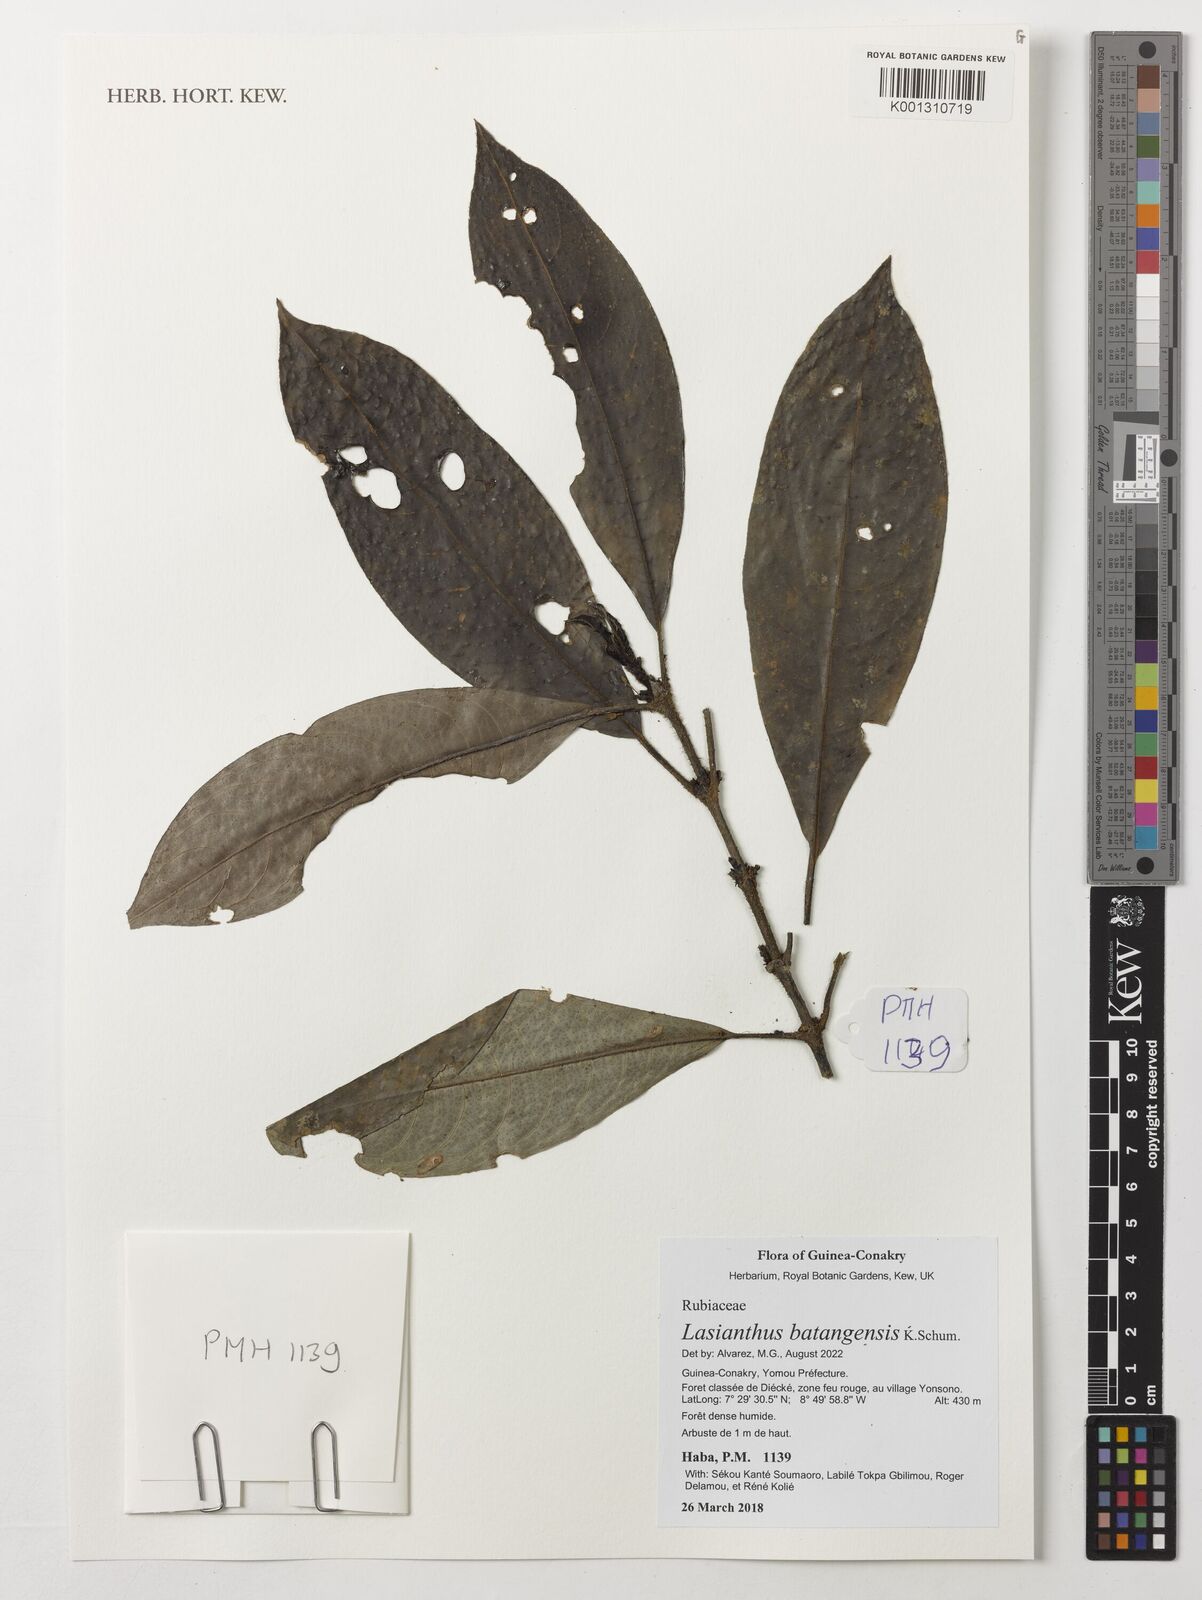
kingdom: Plantae
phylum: Tracheophyta
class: Magnoliopsida
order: Gentianales
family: Rubiaceae
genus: Lasianthus
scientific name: Lasianthus batangensis
